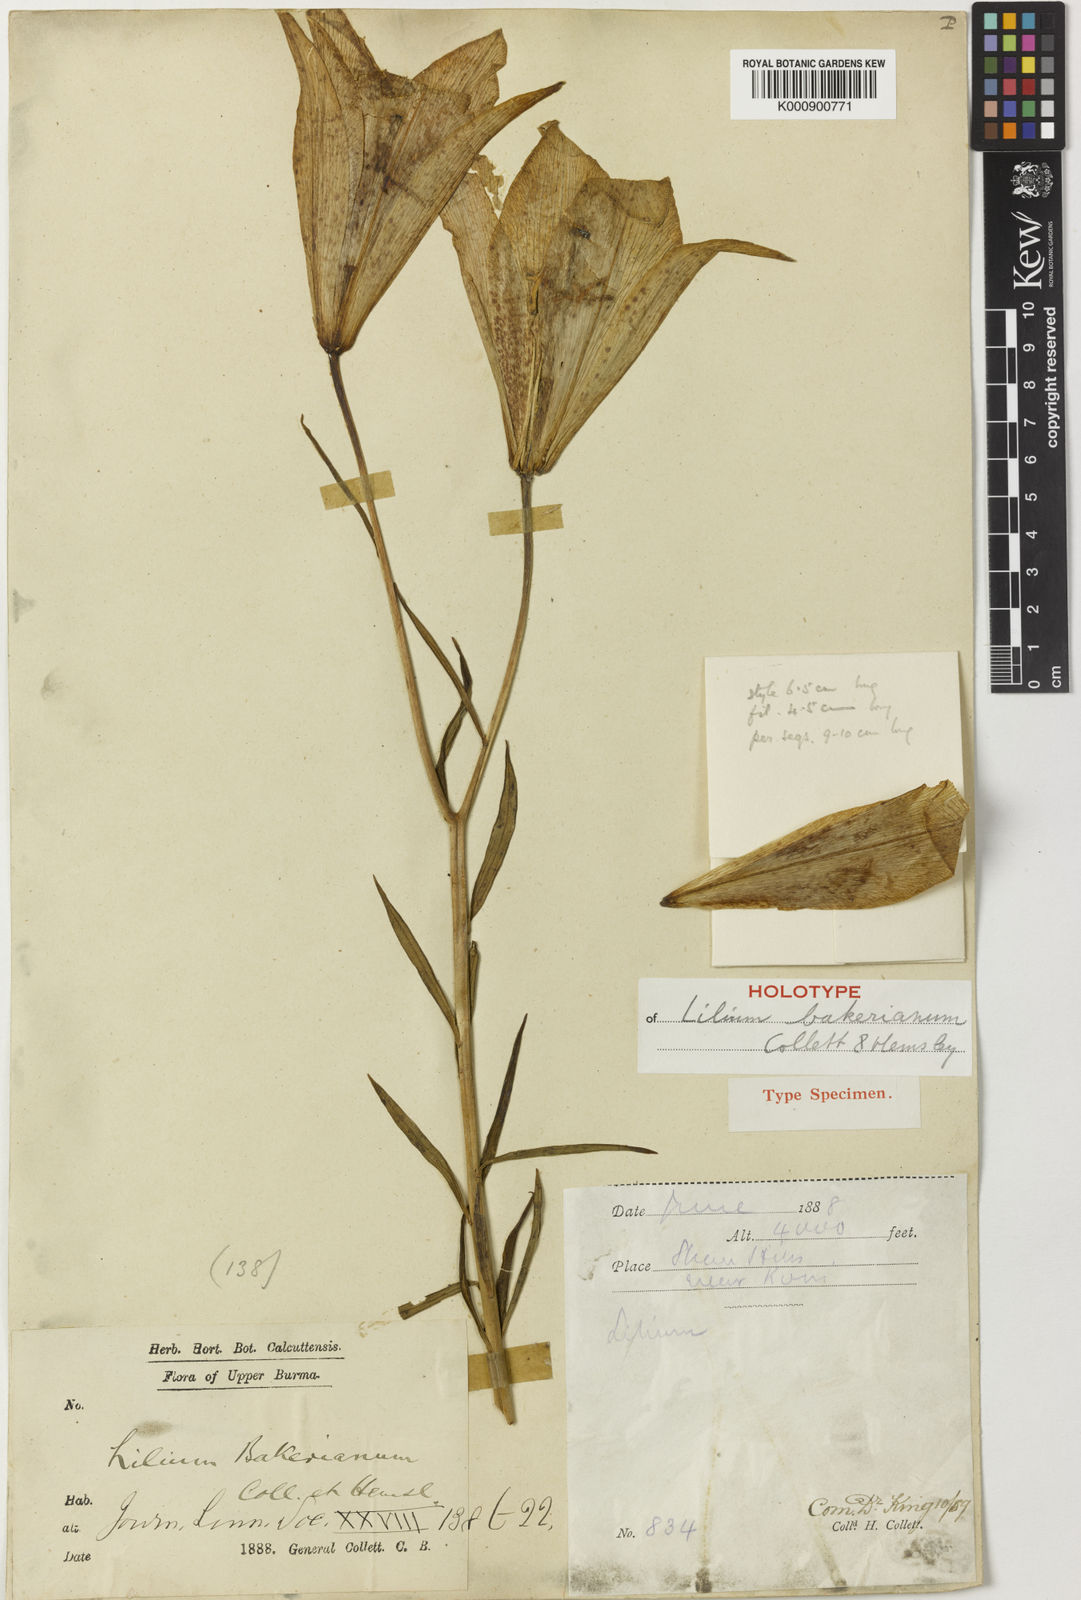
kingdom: Plantae
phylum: Tracheophyta
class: Liliopsida
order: Liliales
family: Liliaceae
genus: Lilium
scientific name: Lilium bakerianum
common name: Baker's lily
